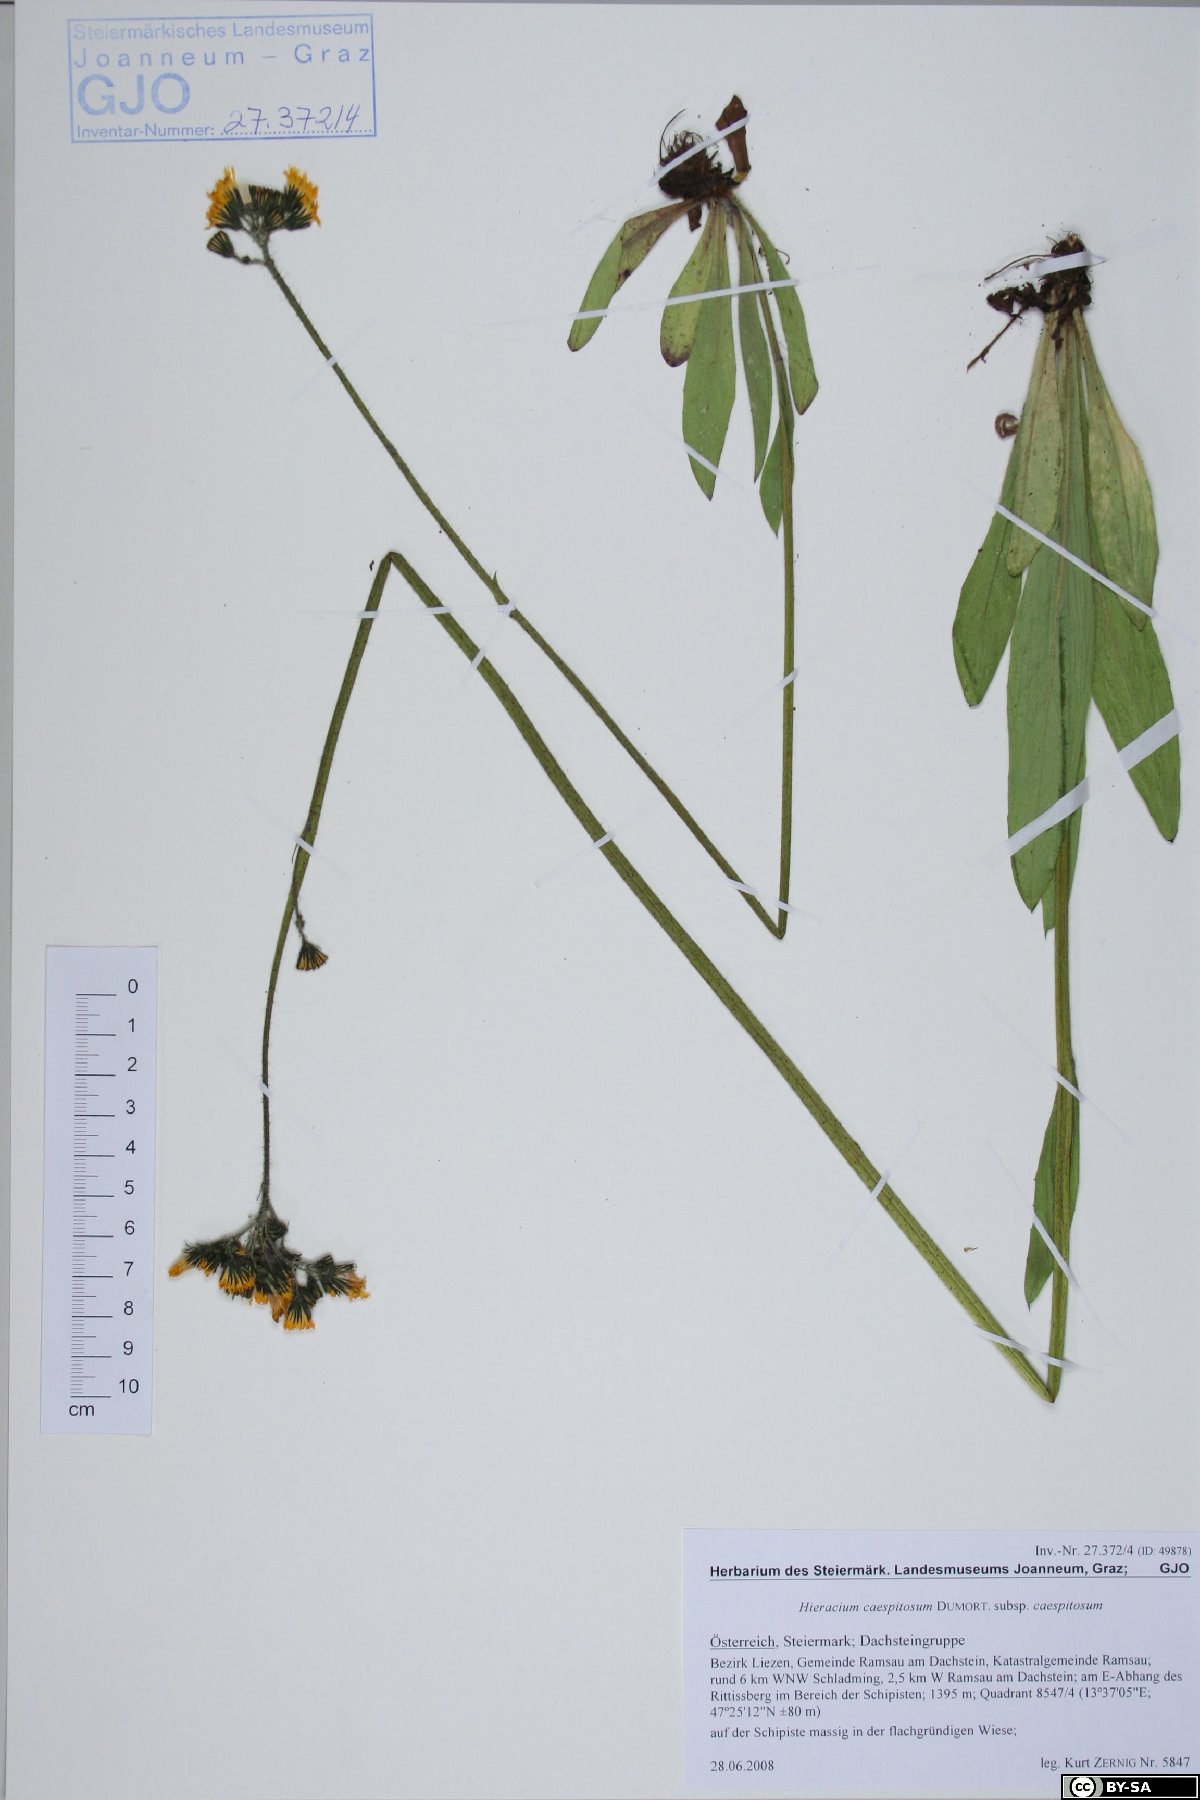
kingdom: Plantae
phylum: Tracheophyta
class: Magnoliopsida
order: Asterales
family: Asteraceae
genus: Pilosella
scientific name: Pilosella caespitosa
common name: Yellow fox-and-cubs
